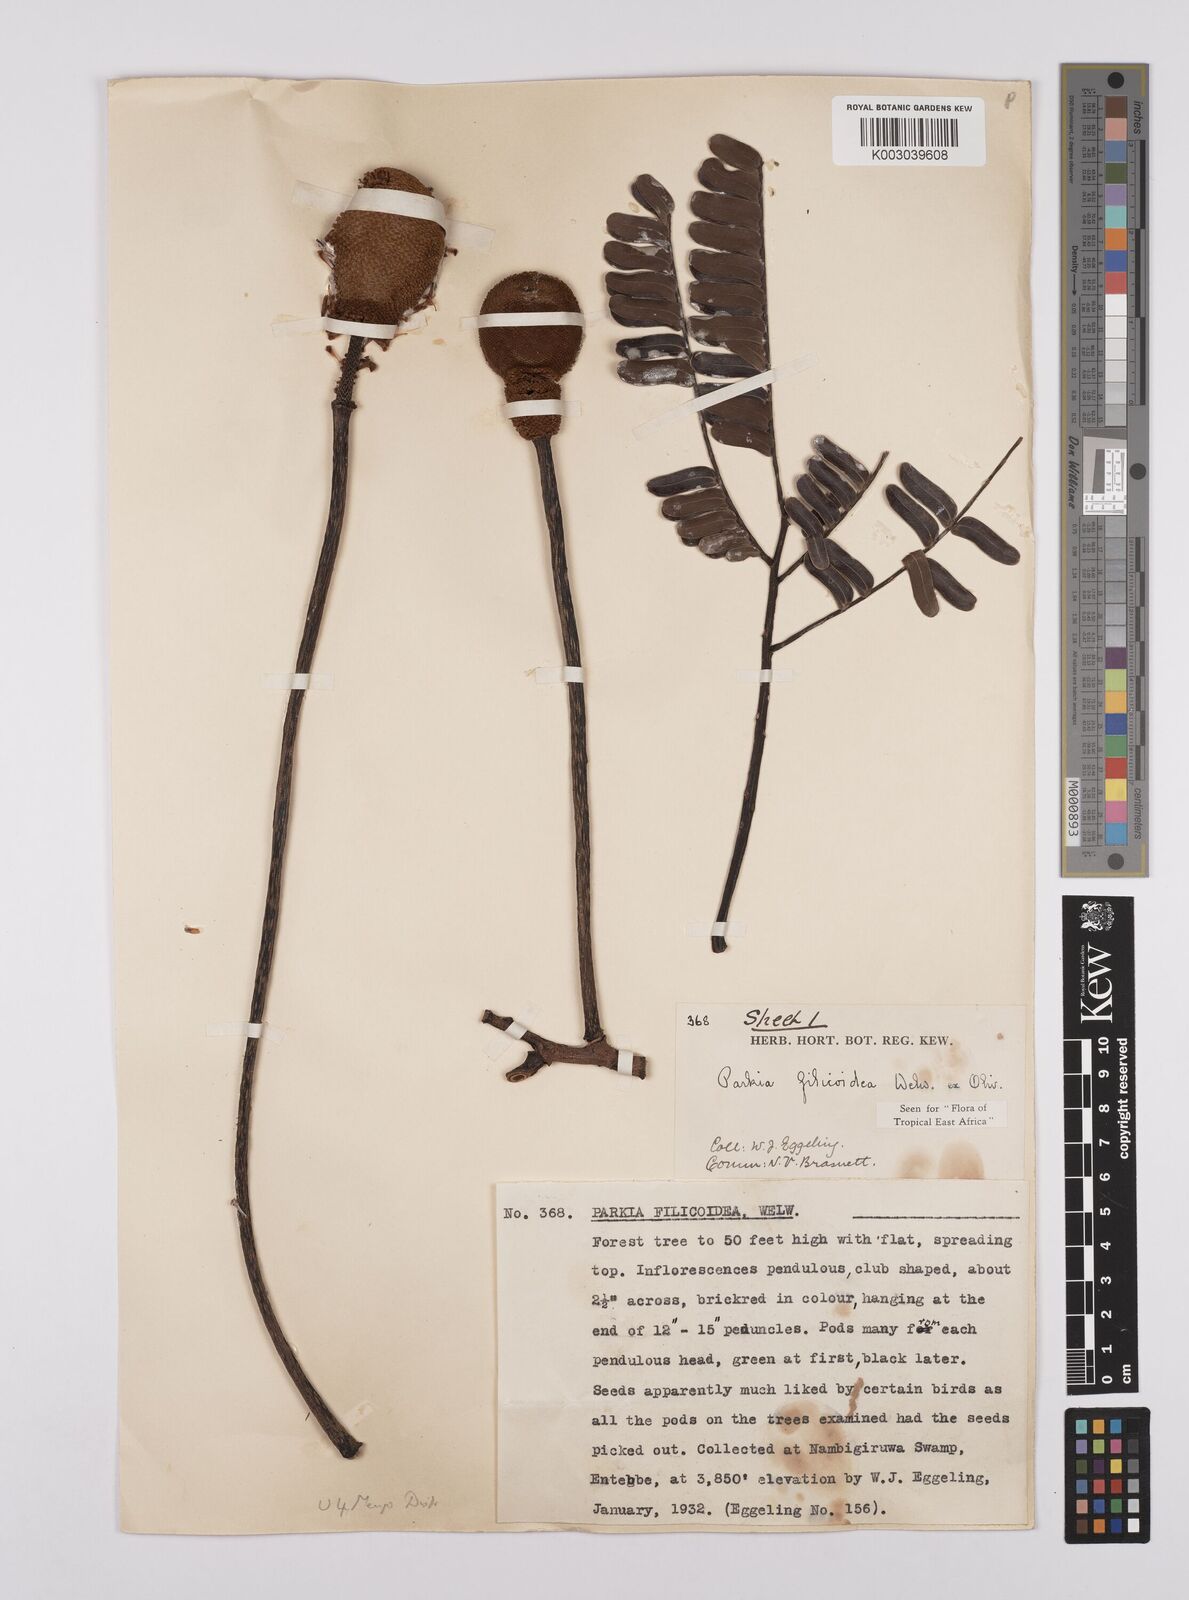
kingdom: Plantae
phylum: Tracheophyta
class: Magnoliopsida
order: Fabales
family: Fabaceae
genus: Parkia
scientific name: Parkia filicoidea
